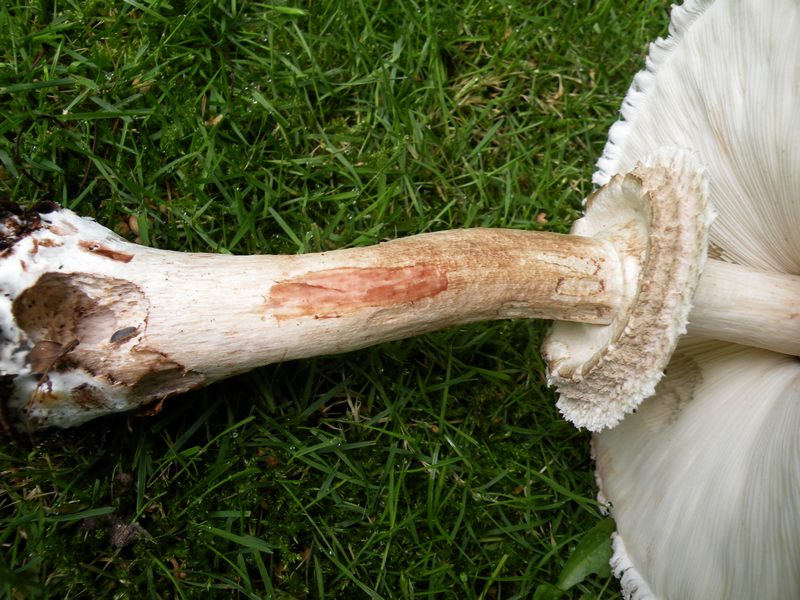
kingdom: Fungi
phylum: Basidiomycota
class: Agaricomycetes
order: Agaricales
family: Agaricaceae
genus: Chlorophyllum
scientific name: Chlorophyllum olivieri
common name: almindelig rabarberhat
